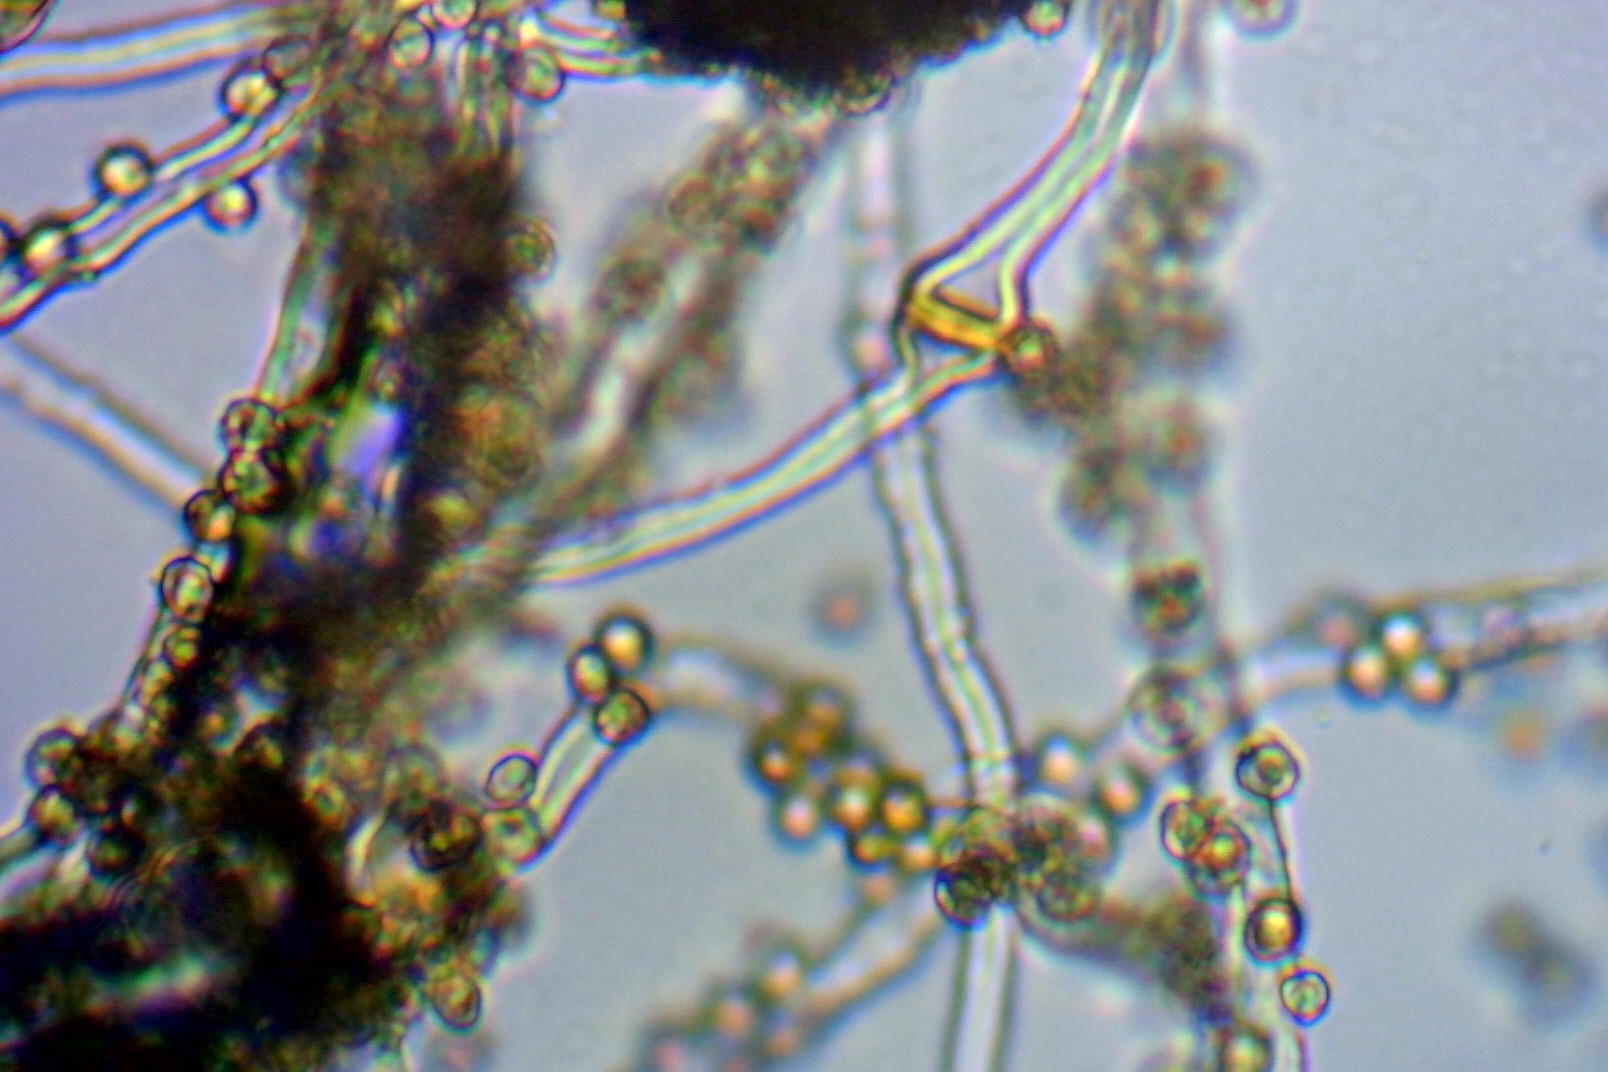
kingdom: Fungi
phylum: Basidiomycota
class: Agaricomycetes
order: Agaricales
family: Agaricaceae
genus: Tulostoma
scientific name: Tulostoma brumale
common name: vinter-stilkbovist
